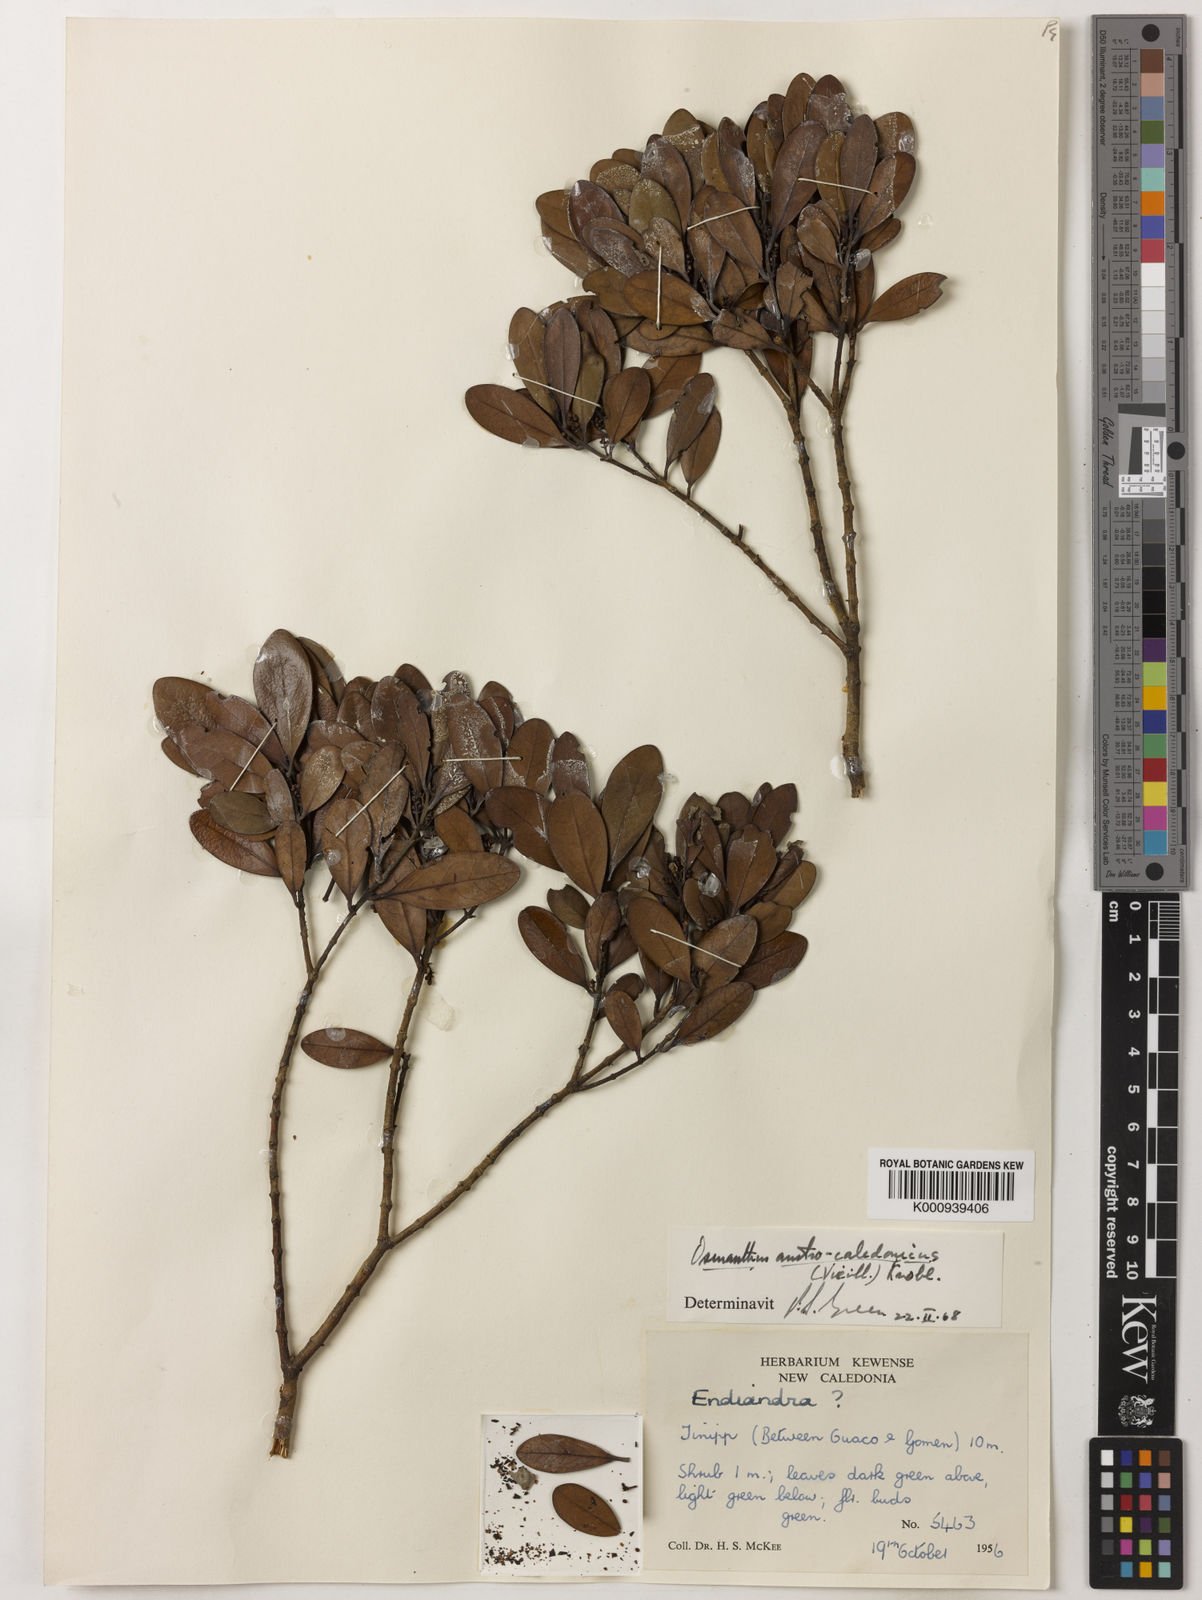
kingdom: Plantae
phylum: Tracheophyta
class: Magnoliopsida
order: Lamiales
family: Oleaceae
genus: Osmanthus
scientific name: Osmanthus austrocaledonicus
